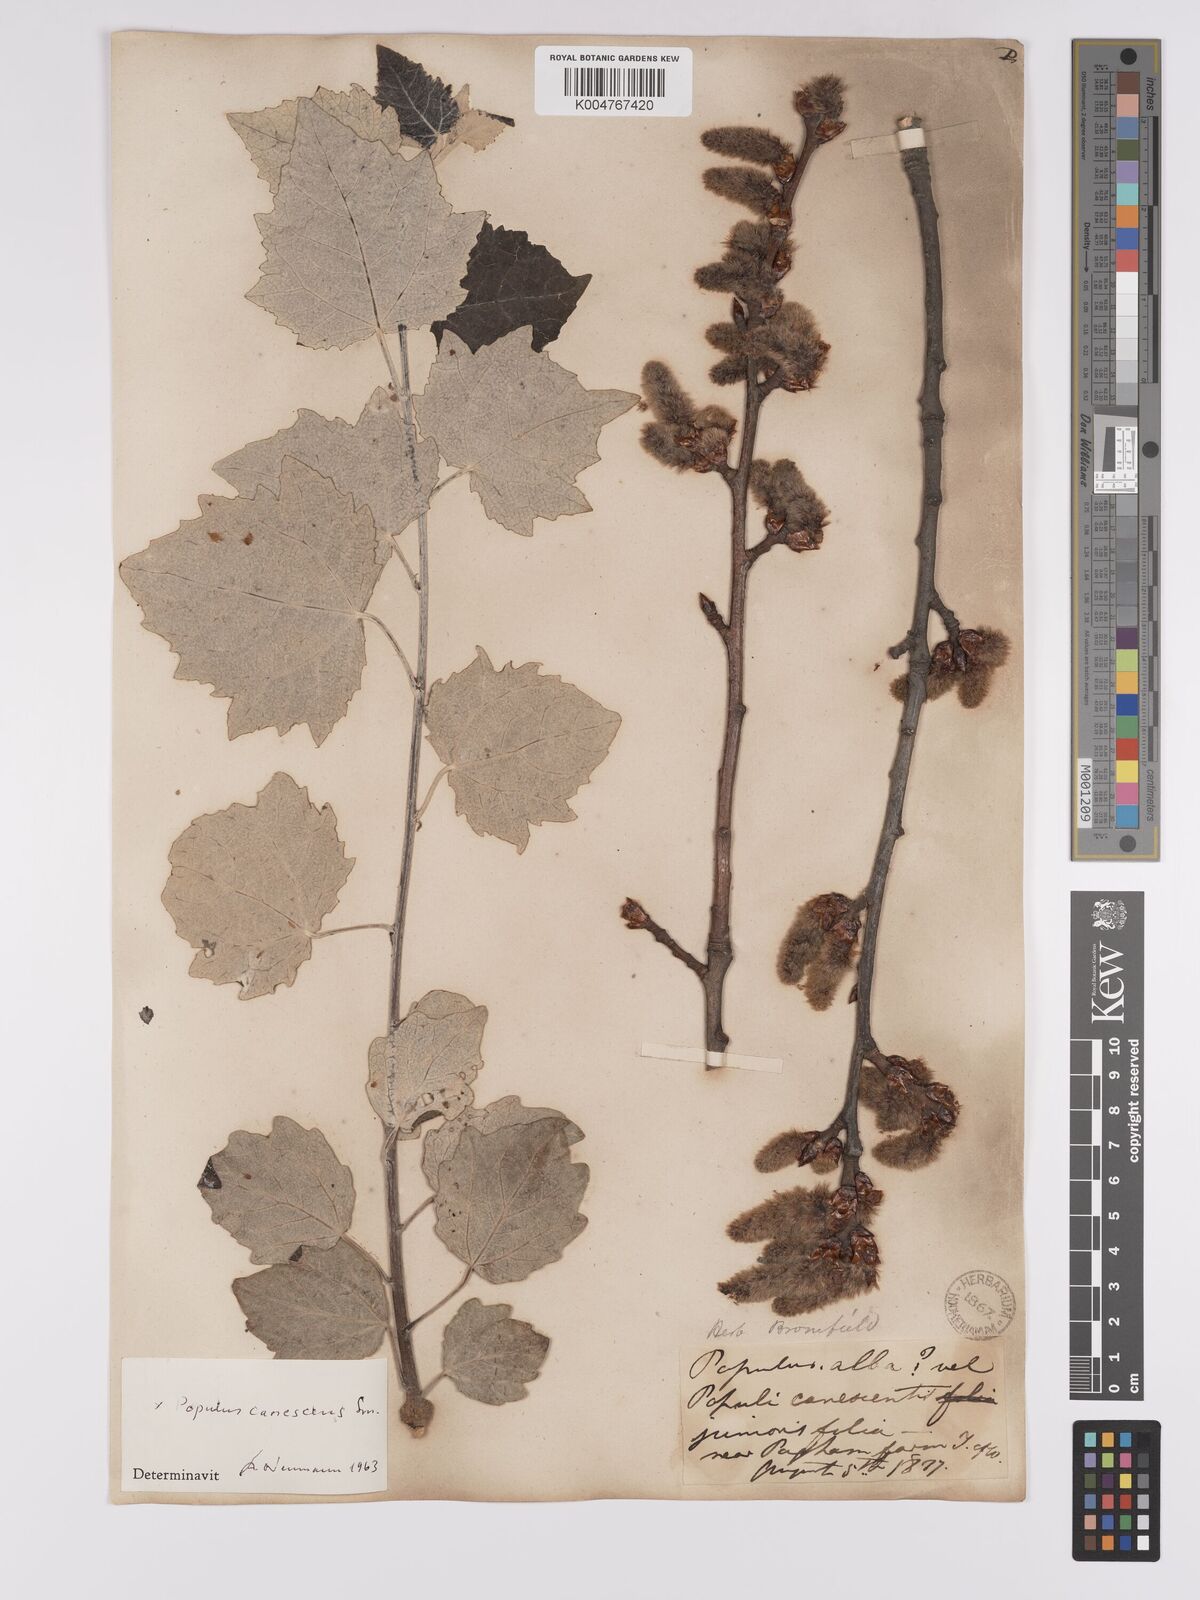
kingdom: Plantae
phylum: Tracheophyta
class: Magnoliopsida
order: Malpighiales
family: Salicaceae
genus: Populus
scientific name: Populus canescens
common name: Gray poplar
